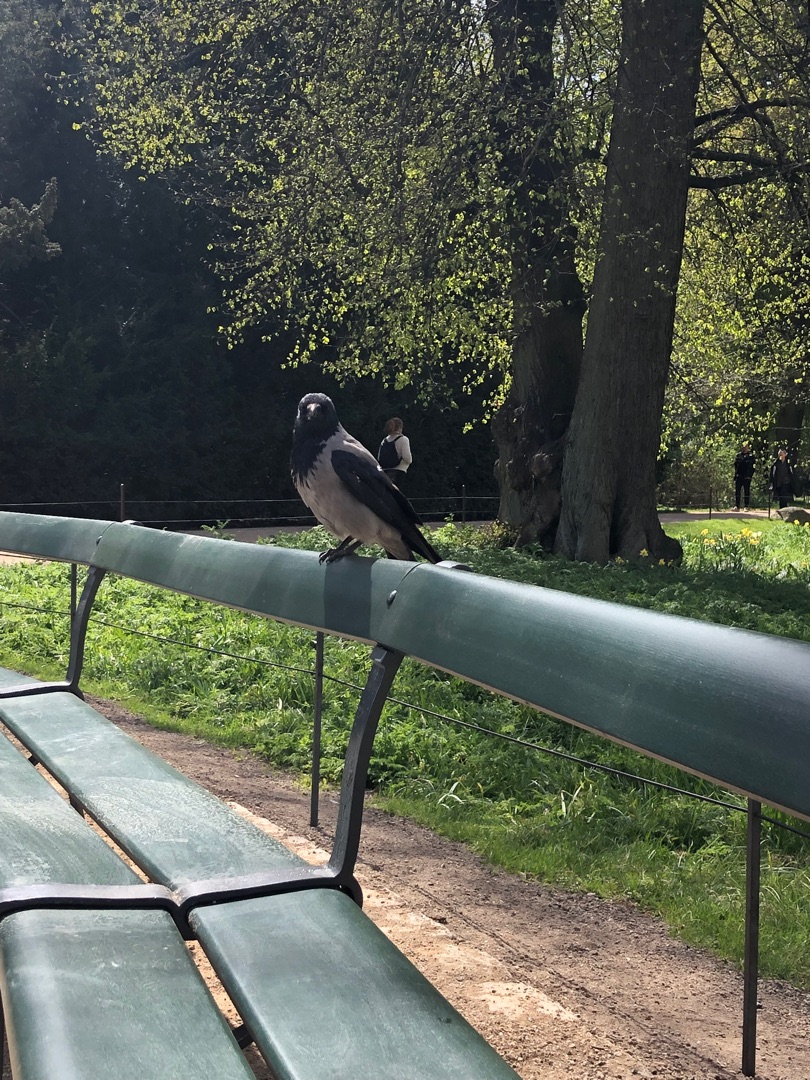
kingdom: Animalia
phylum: Chordata
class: Aves
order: Passeriformes
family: Corvidae
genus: Corvus
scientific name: Corvus cornix
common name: Gråkrage
